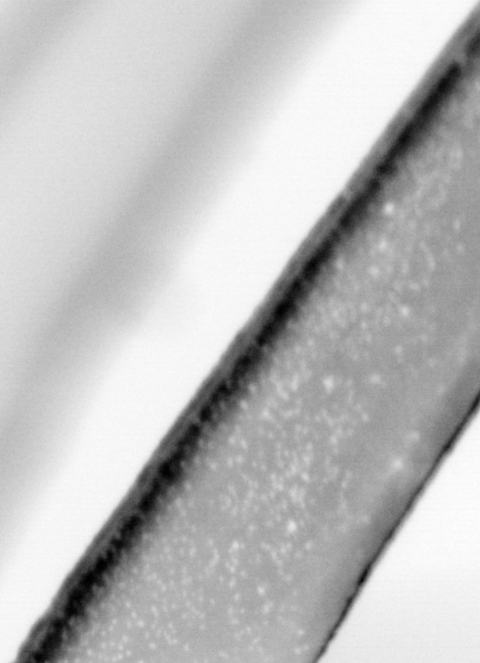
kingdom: Animalia
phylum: Chordata
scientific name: Chordata
